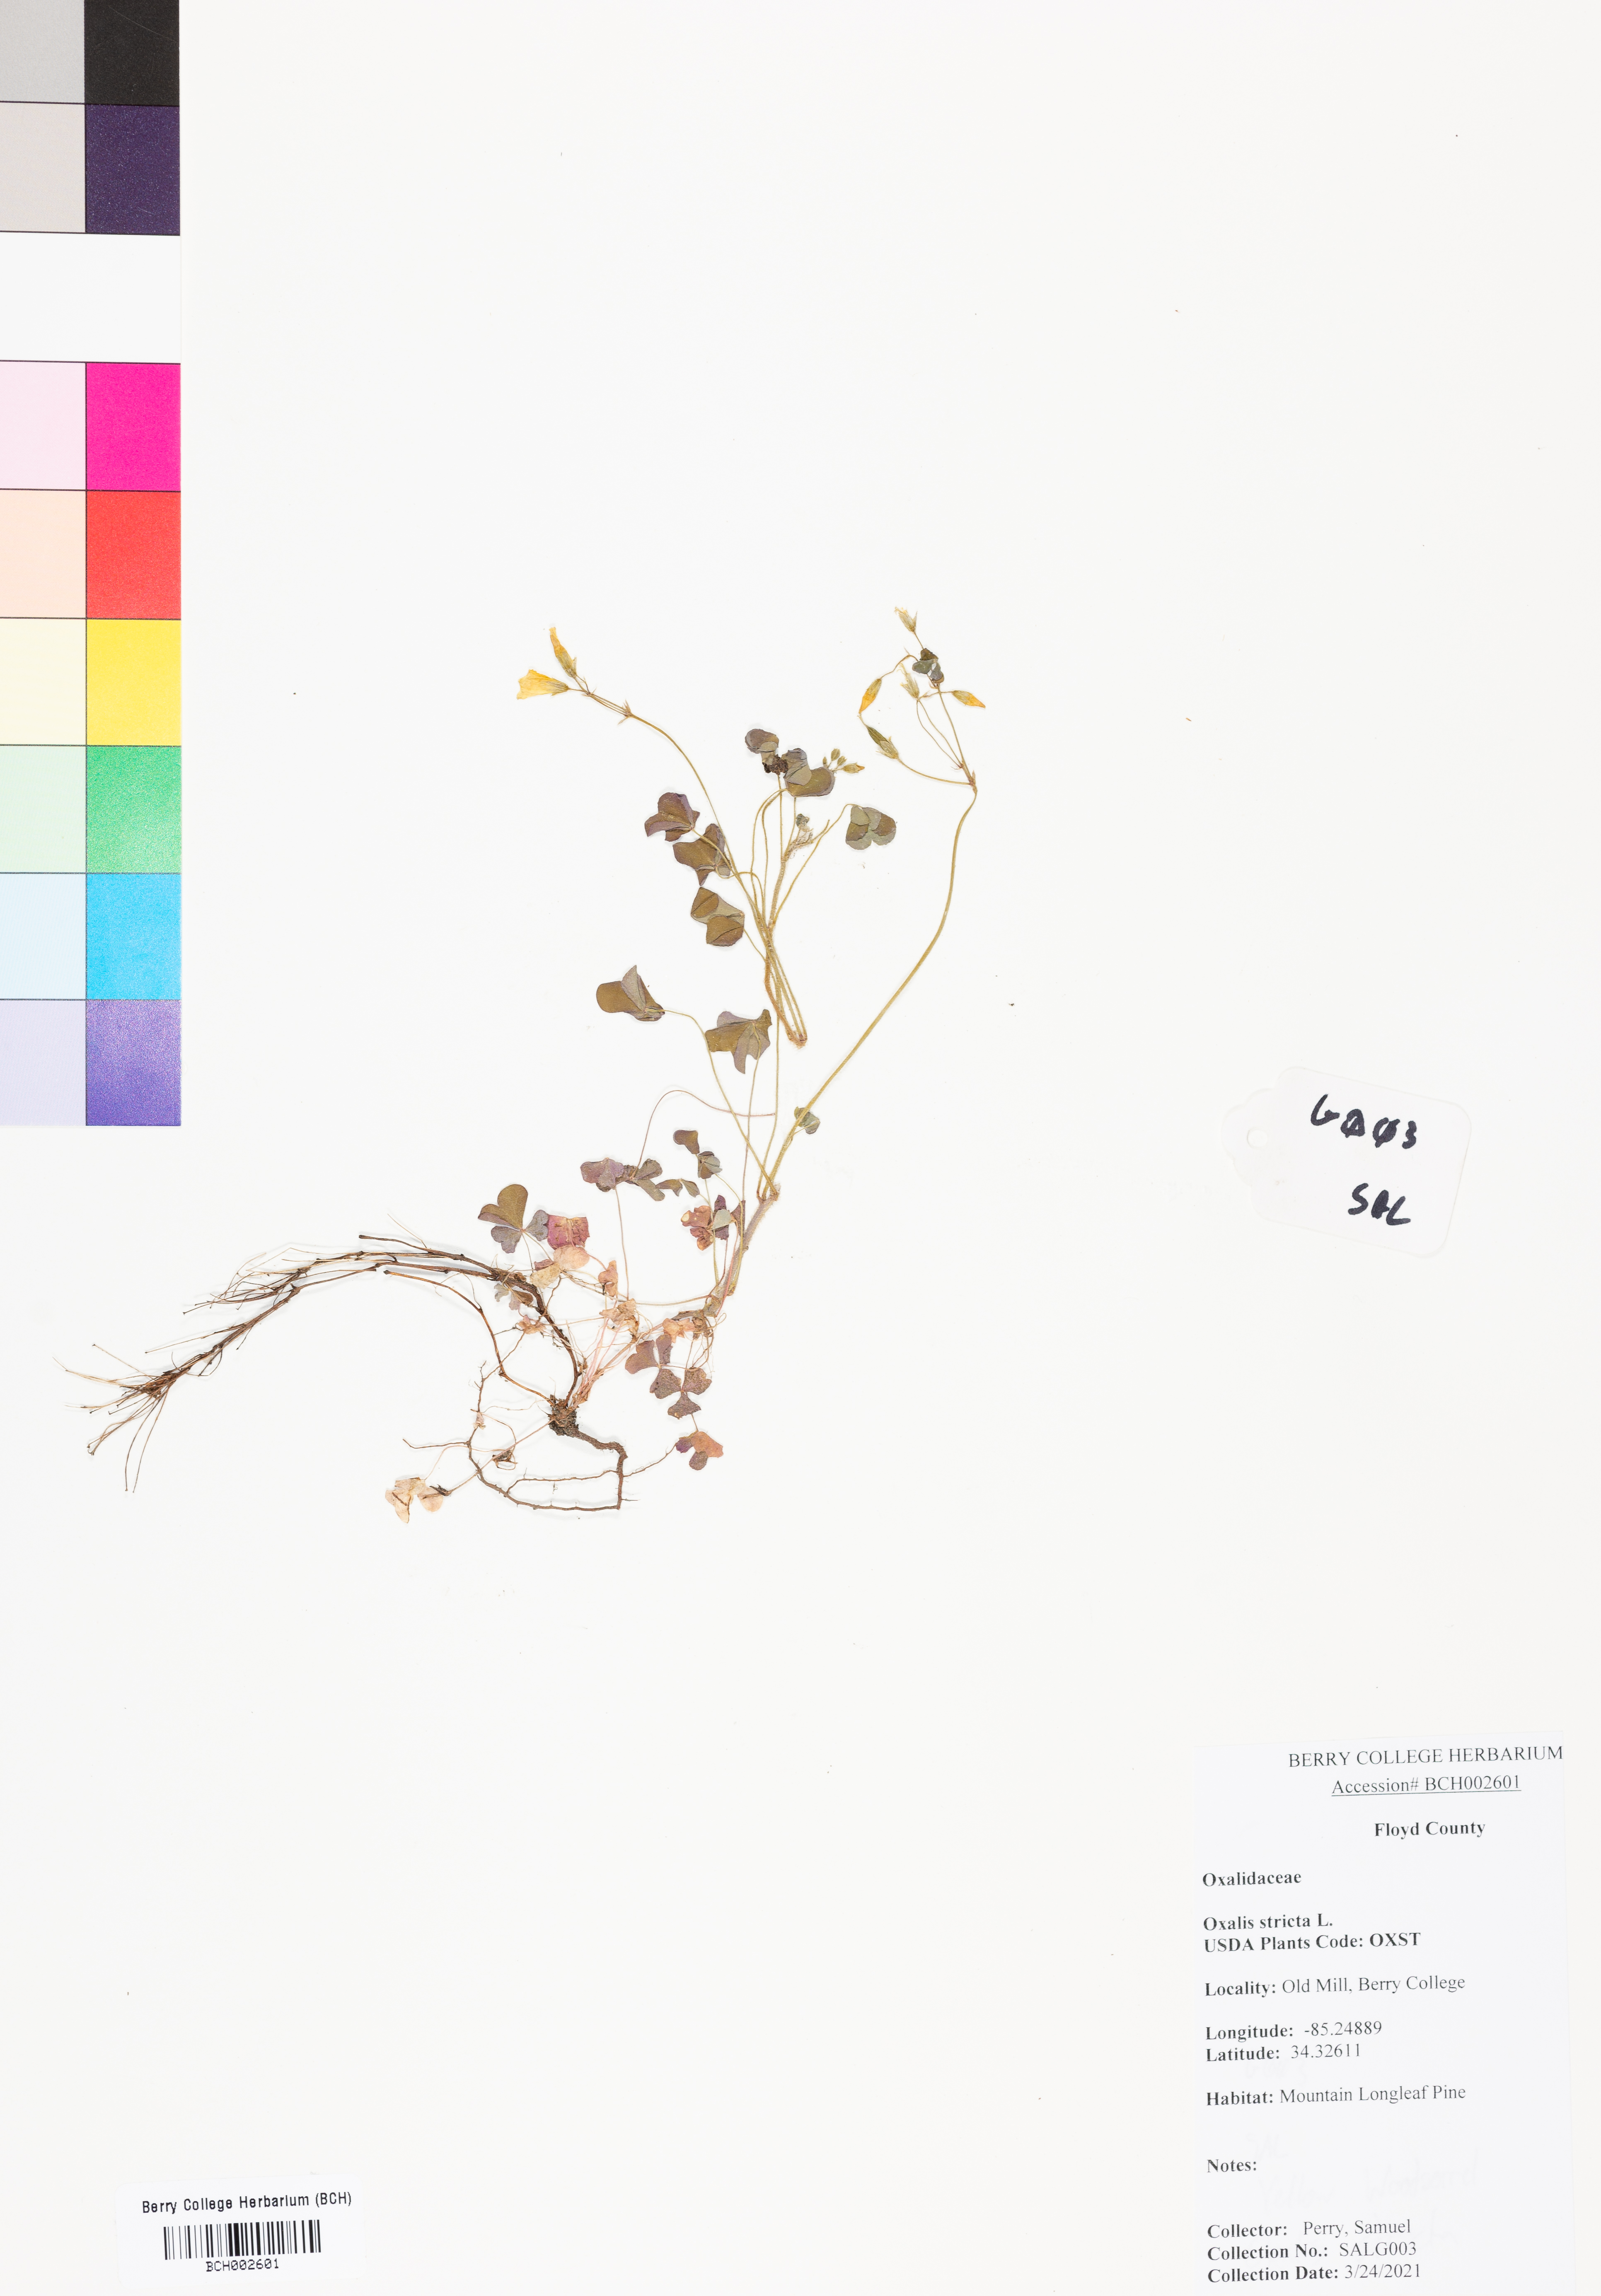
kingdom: Plantae
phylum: Tracheophyta
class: Magnoliopsida
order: Oxalidales
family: Oxalidaceae
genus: Oxalis
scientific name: Oxalis stricta
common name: Upright yellow-sorrel
